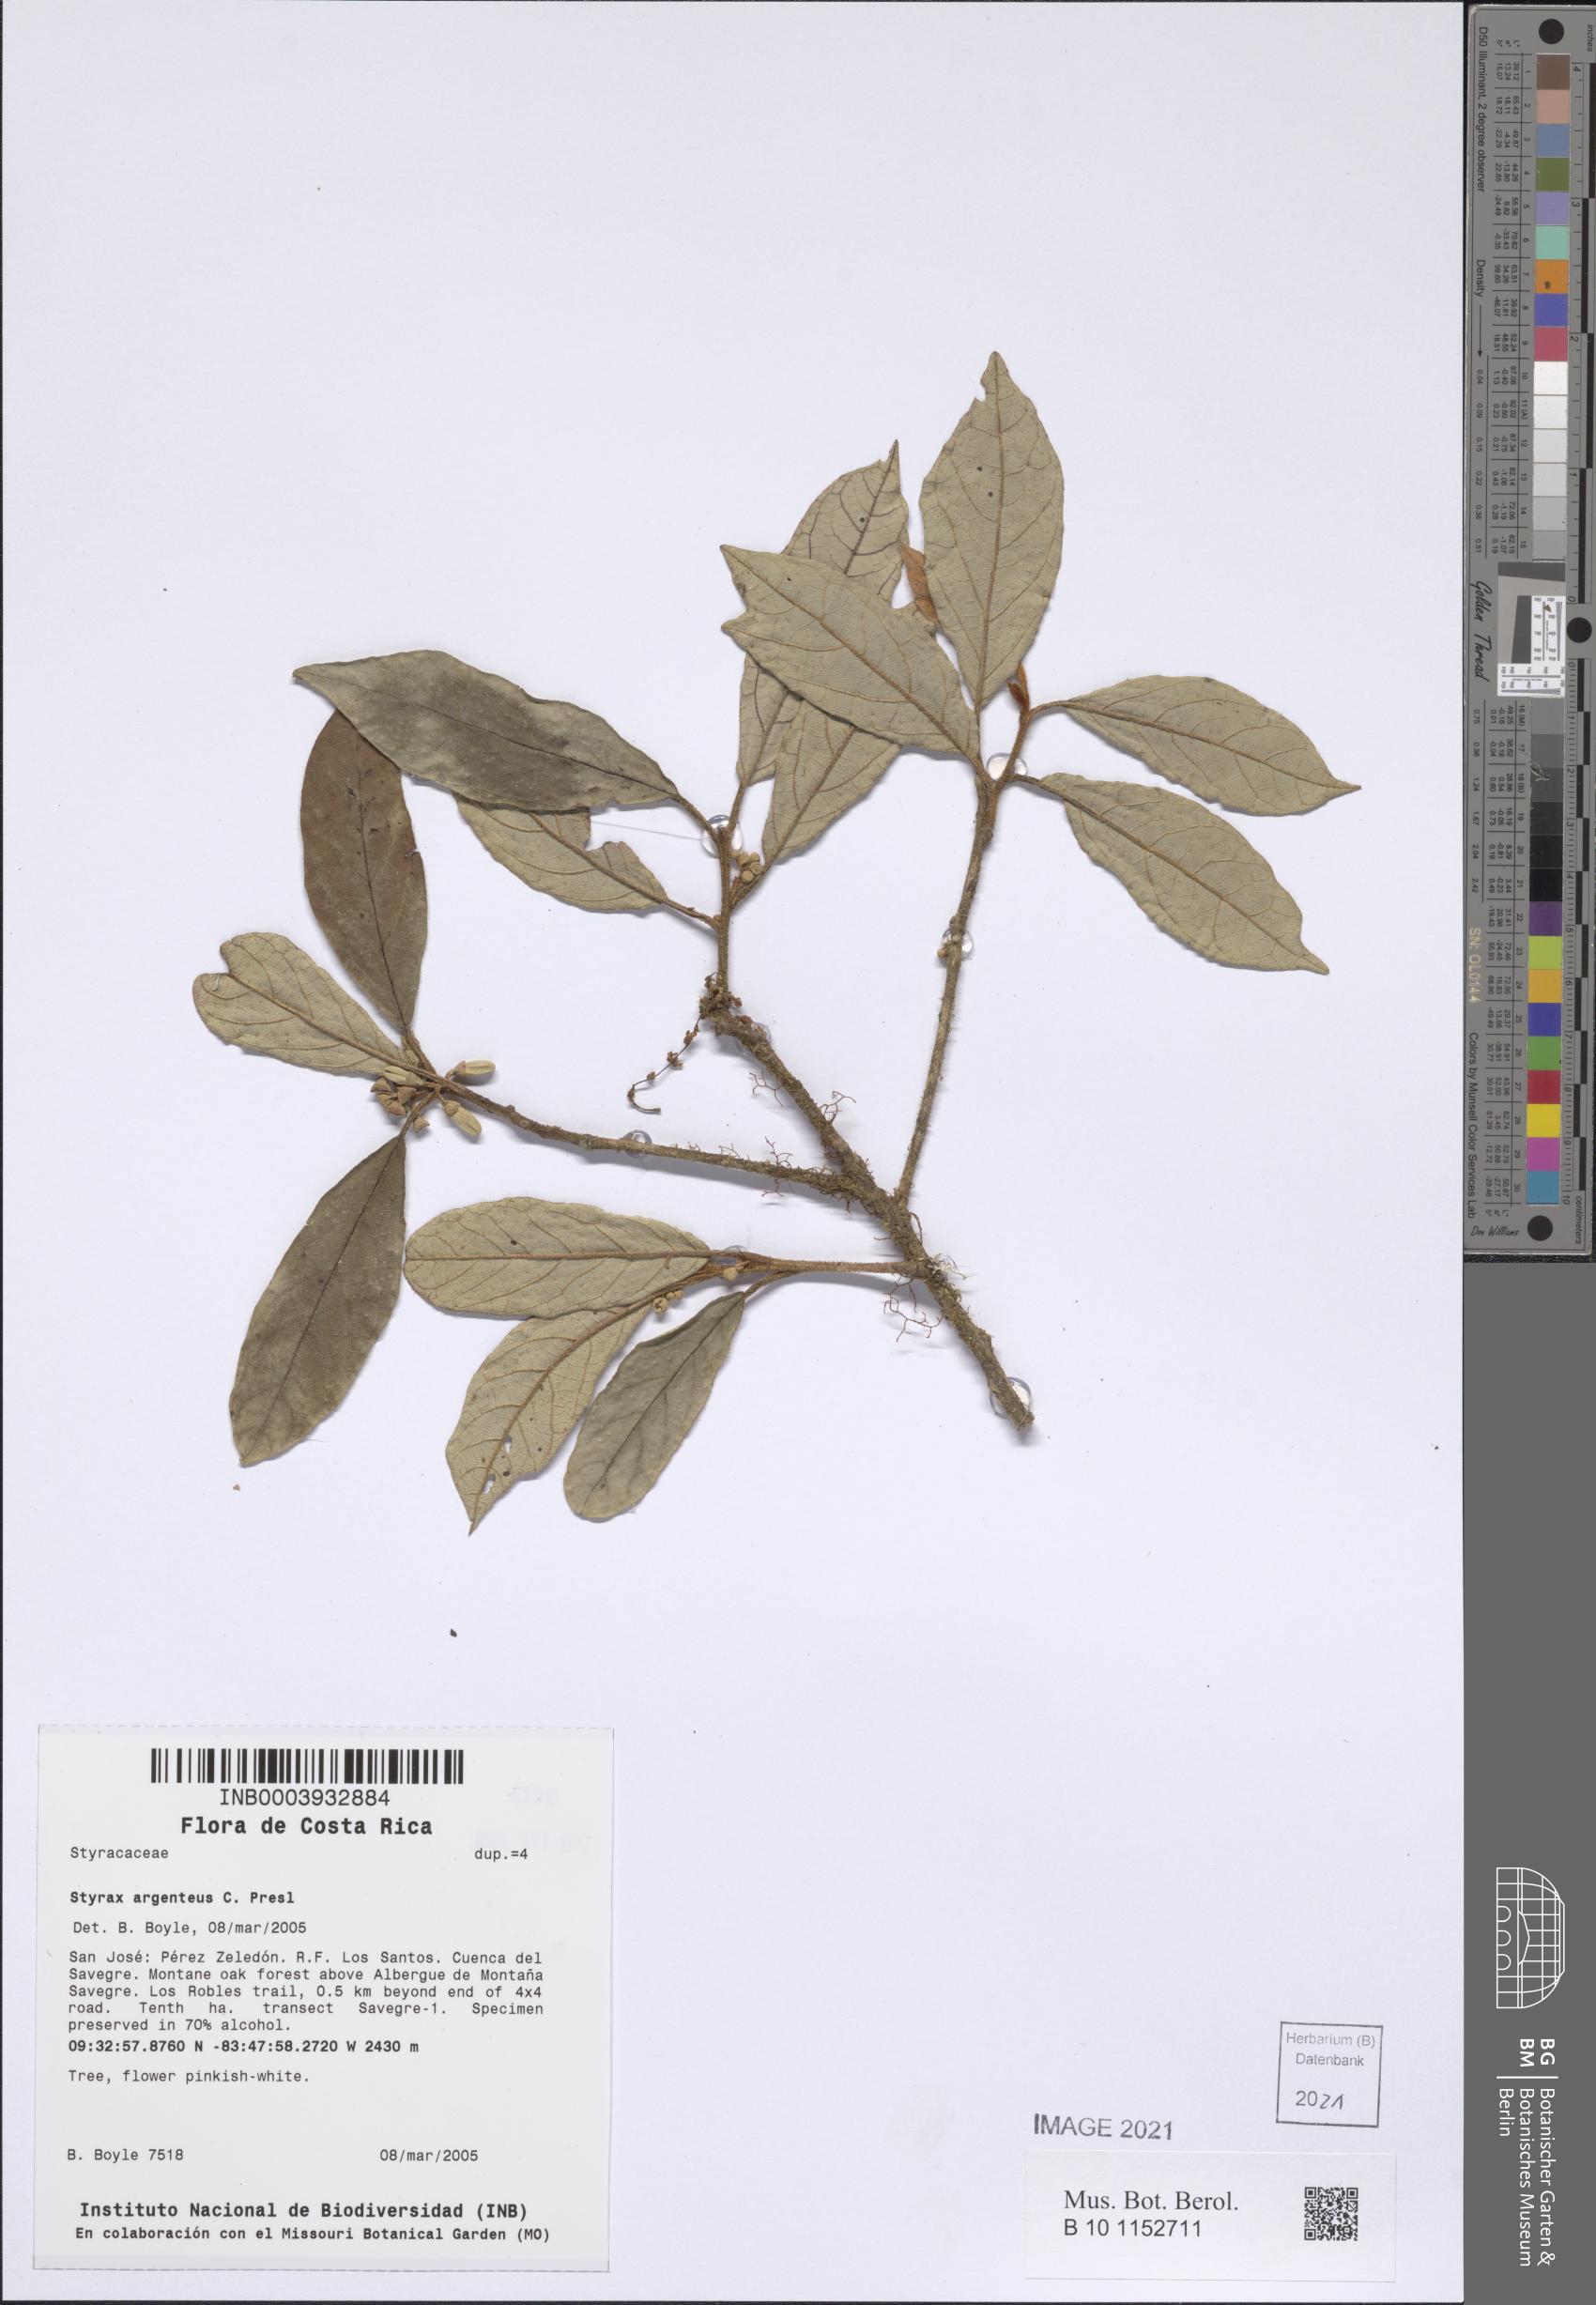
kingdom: Plantae
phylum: Tracheophyta
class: Magnoliopsida
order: Ericales
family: Styracaceae
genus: Styrax
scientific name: Styrax warscewiczii
